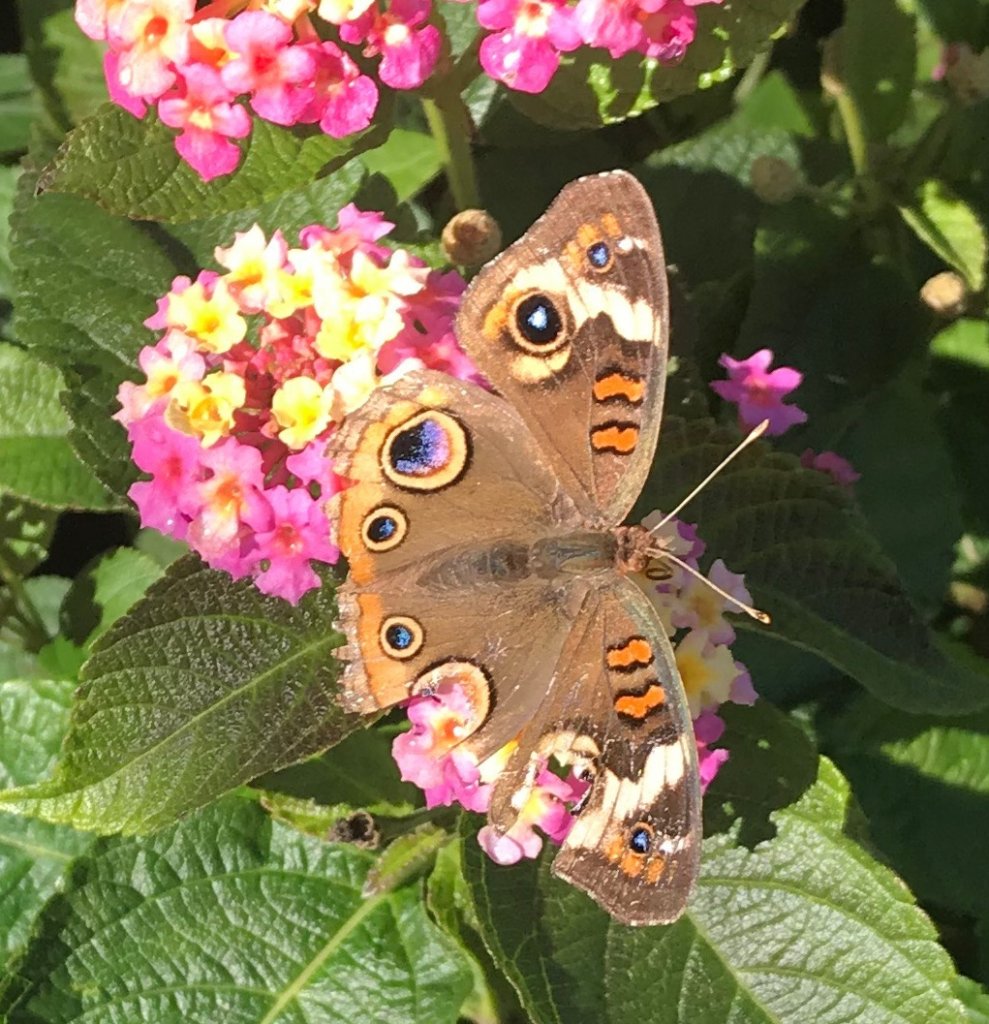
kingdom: Animalia
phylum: Arthropoda
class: Insecta
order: Lepidoptera
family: Nymphalidae
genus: Junonia
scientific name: Junonia coenia
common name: Common Buckeye
